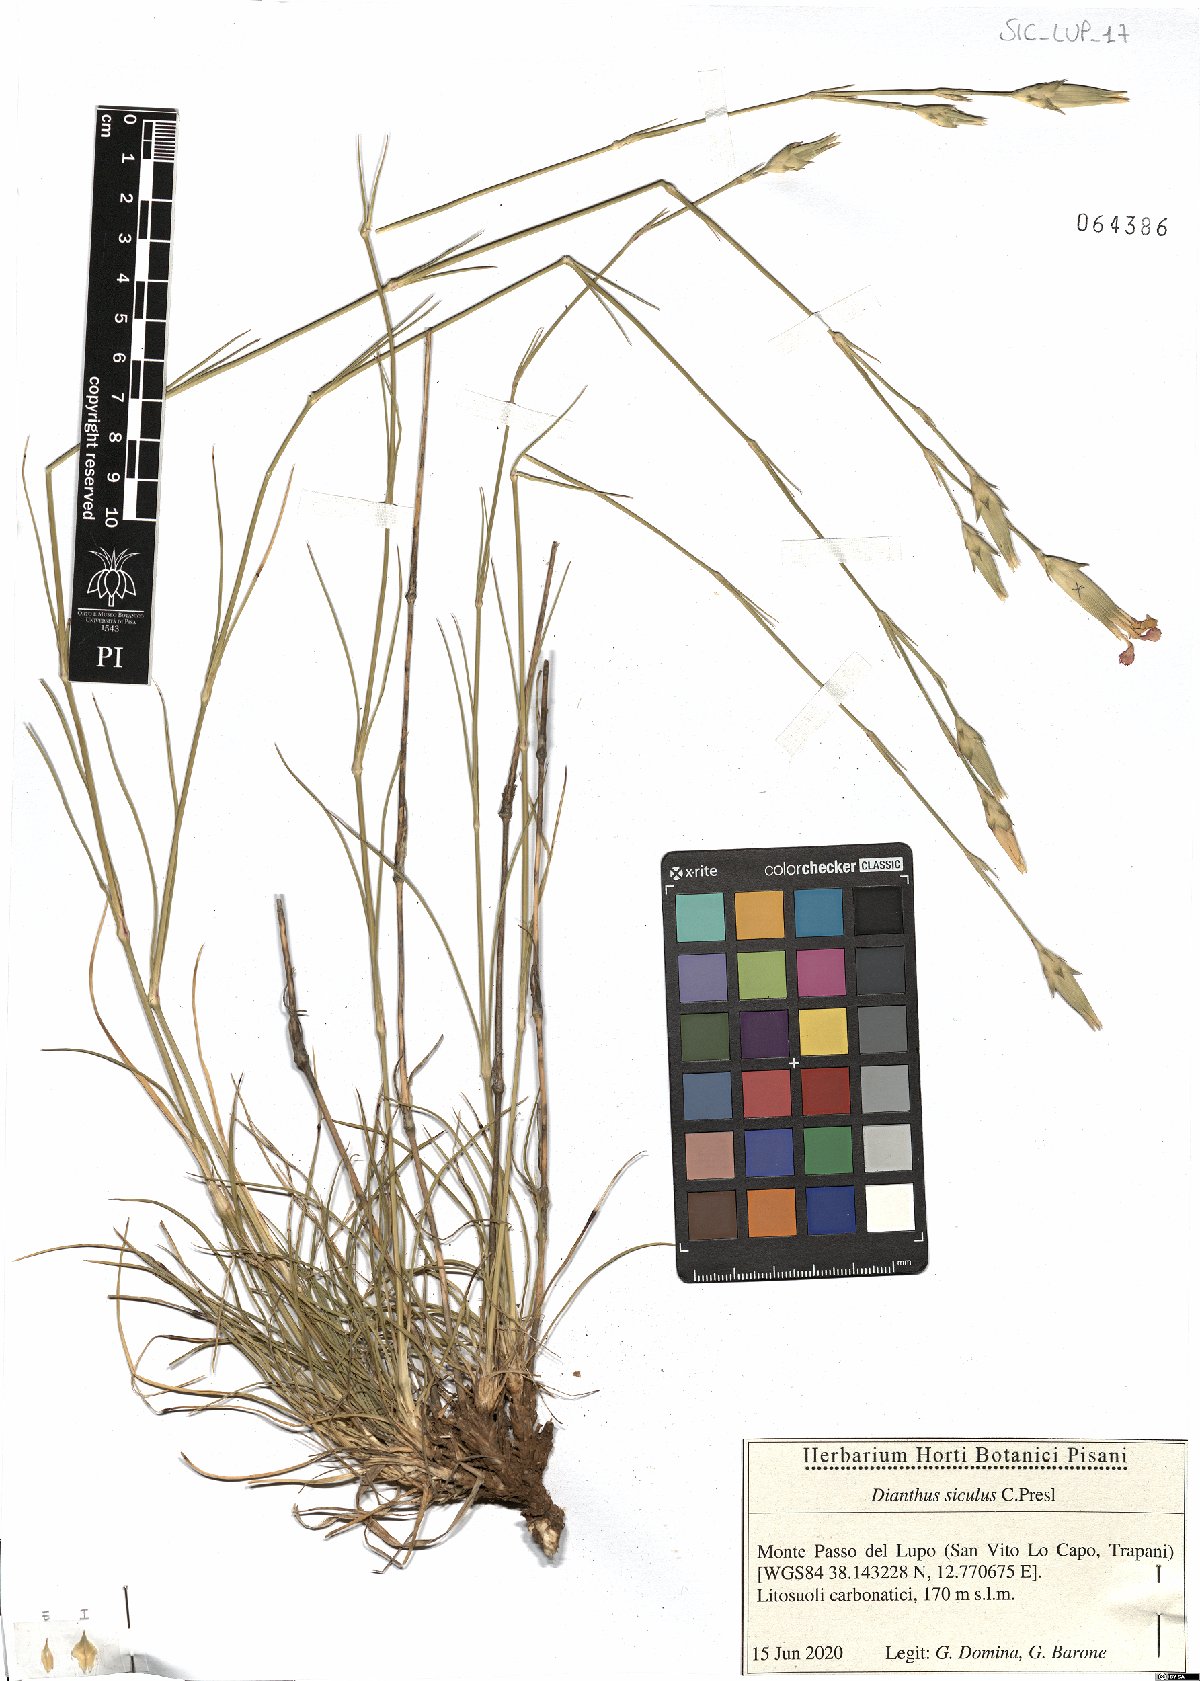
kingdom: Plantae
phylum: Tracheophyta
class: Magnoliopsida
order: Caryophyllales
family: Caryophyllaceae
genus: Dianthus
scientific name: Dianthus siculus
